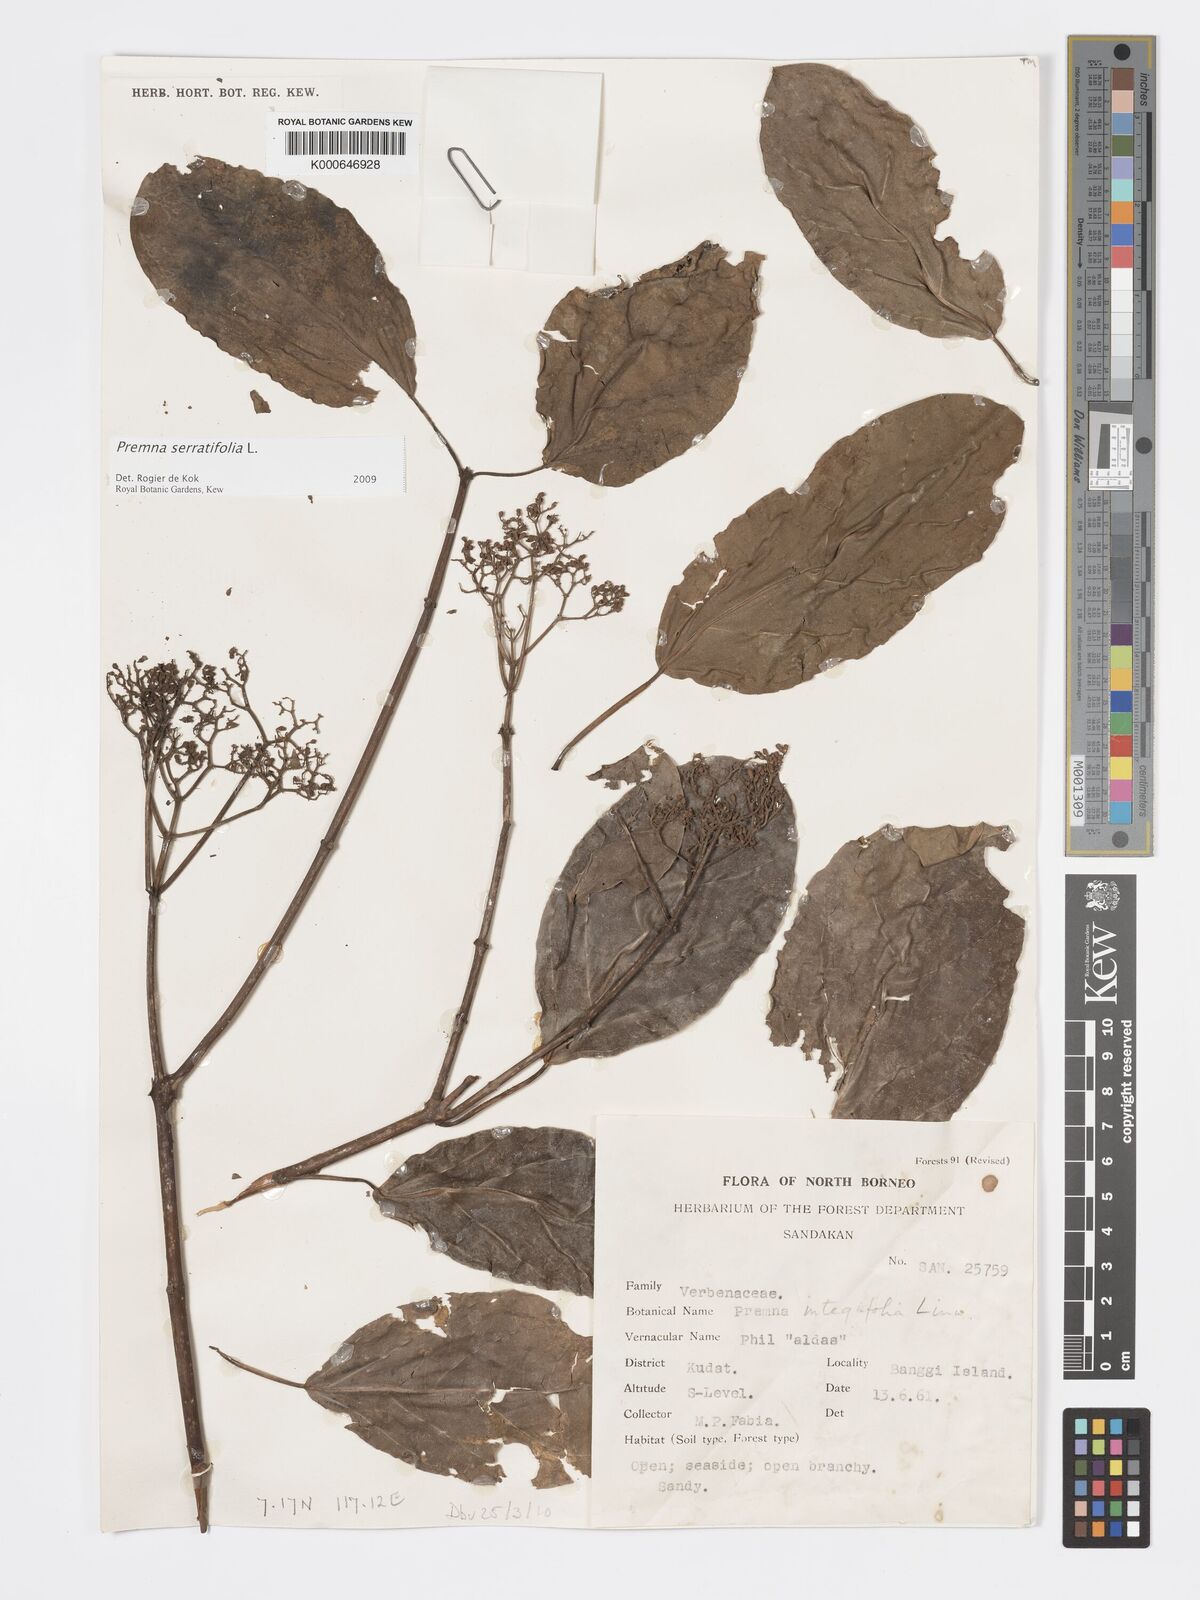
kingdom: Plantae
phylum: Tracheophyta
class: Magnoliopsida
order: Lamiales
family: Lamiaceae
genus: Premna
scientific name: Premna serratifolia
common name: Bastard guelder
